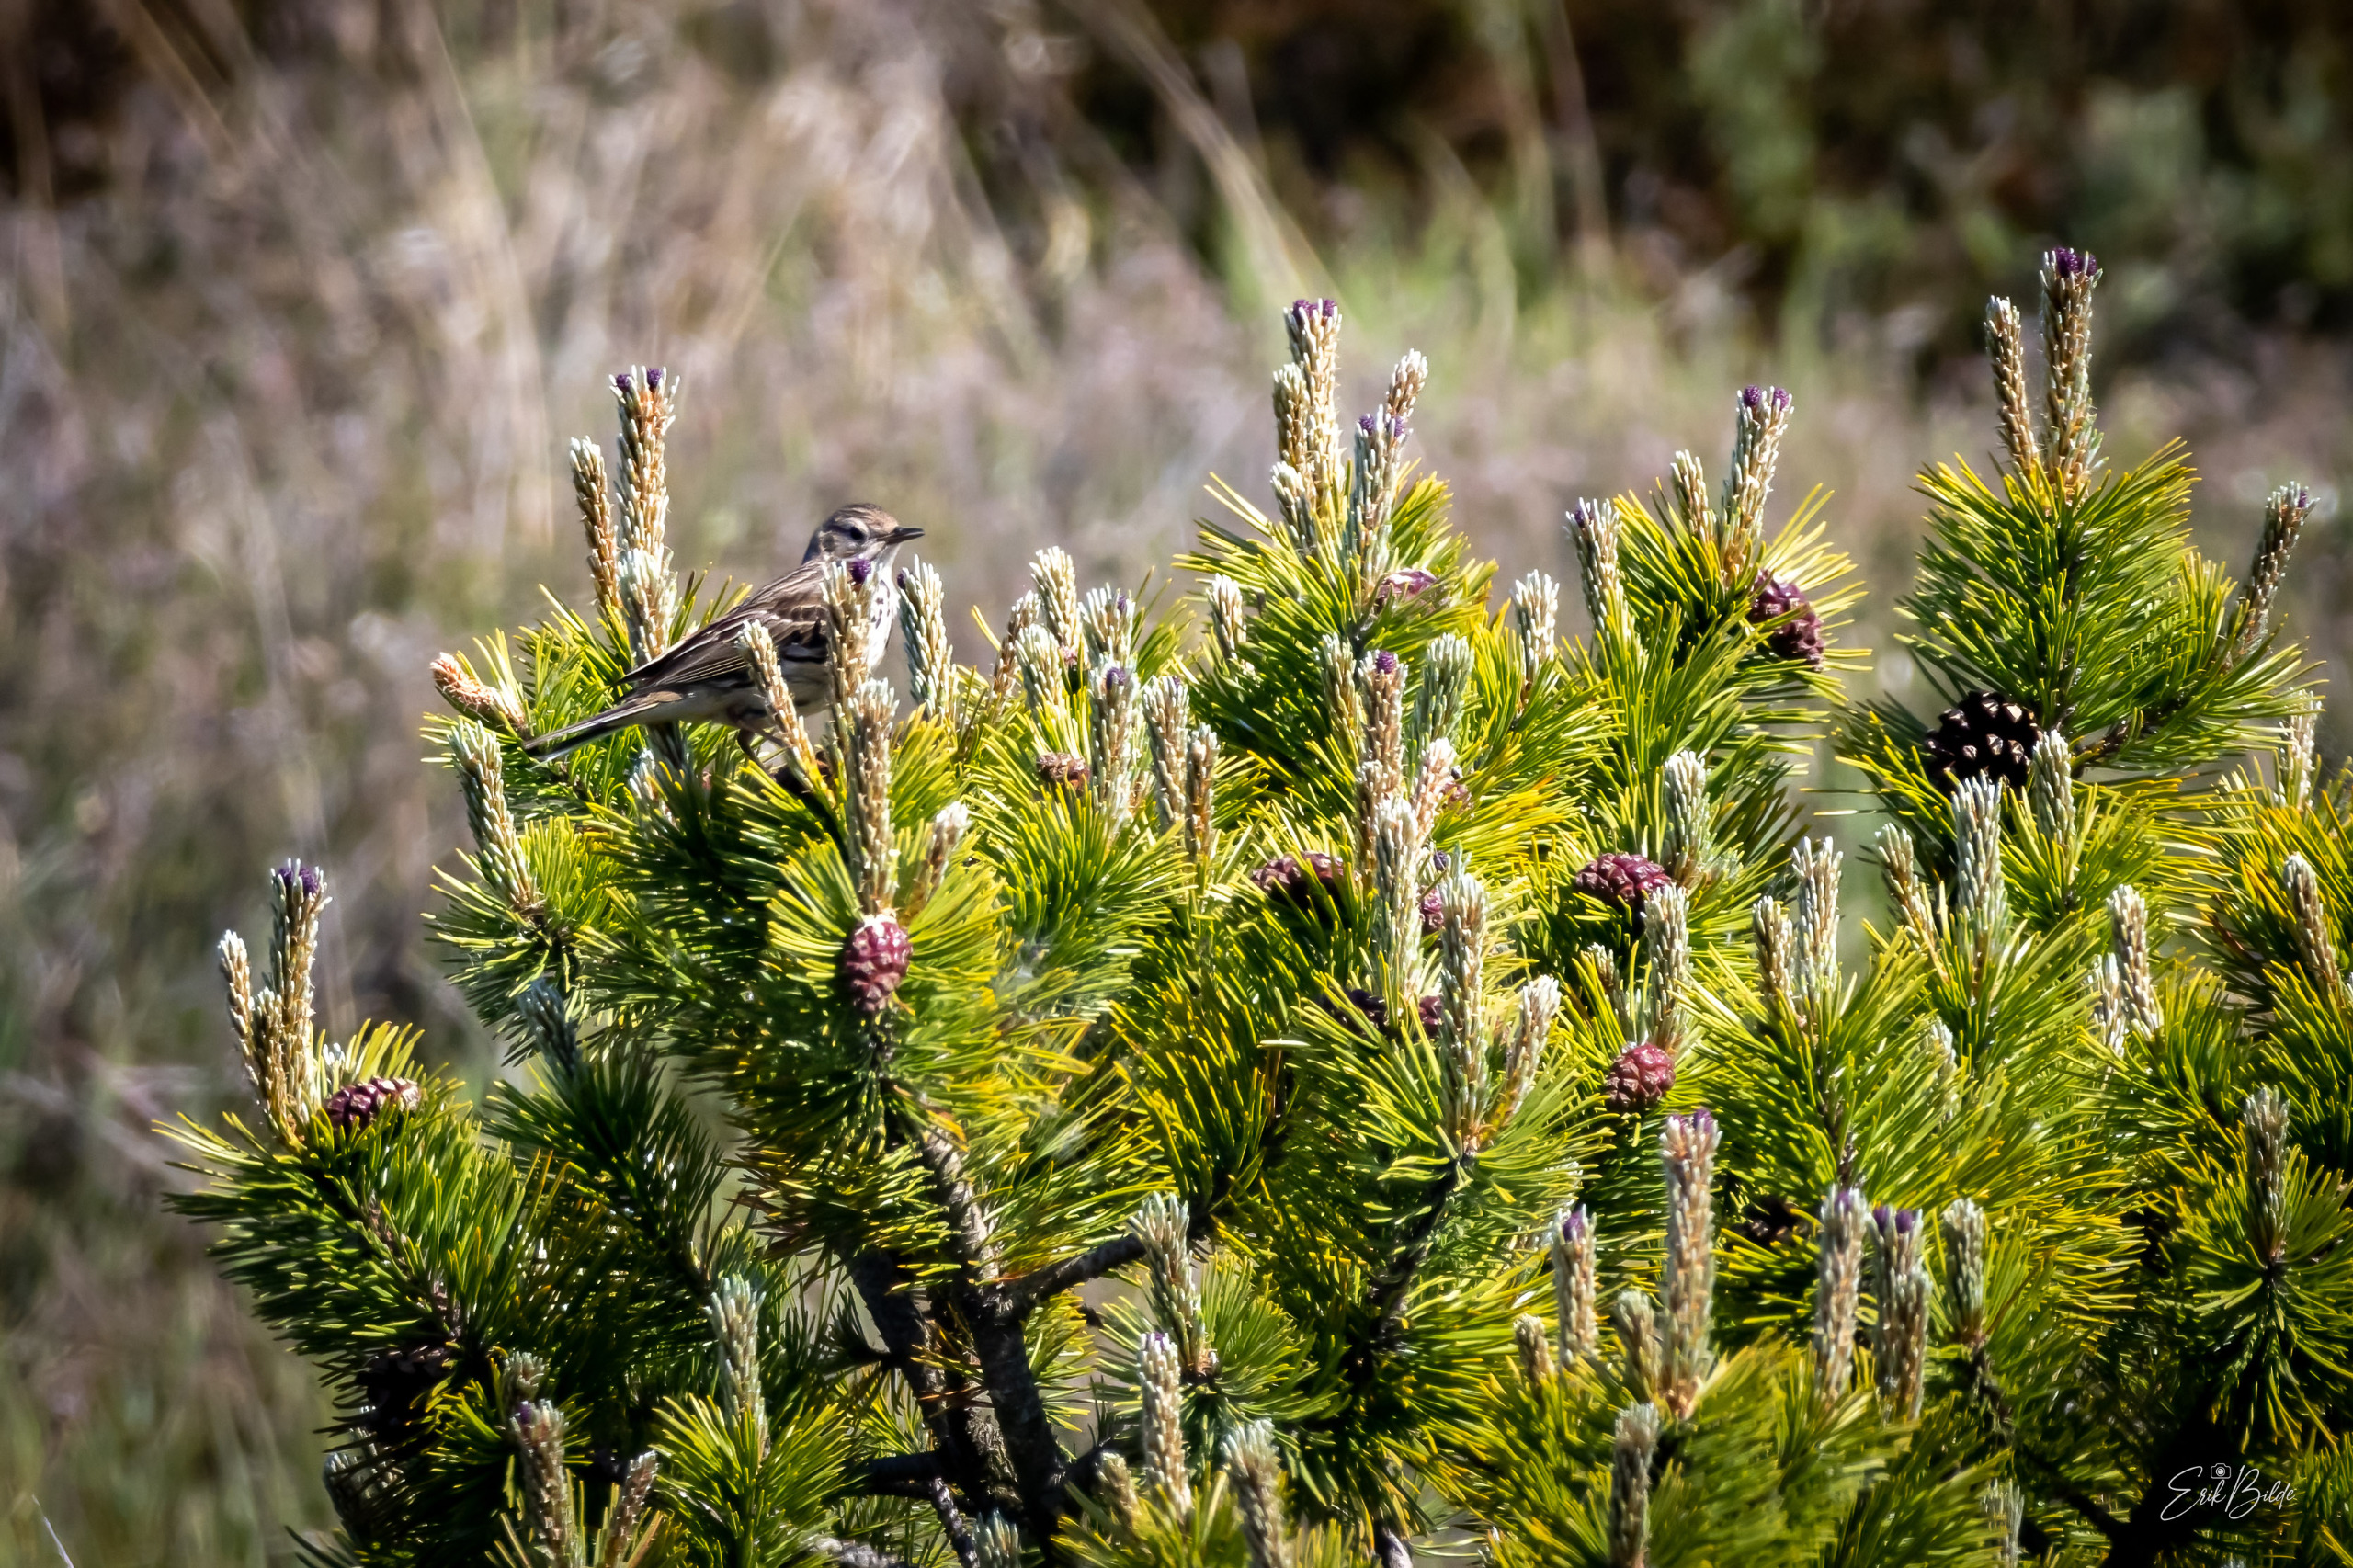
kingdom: Animalia
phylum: Chordata
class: Aves
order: Passeriformes
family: Motacillidae
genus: Anthus
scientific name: Anthus pratensis
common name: Engpiber
